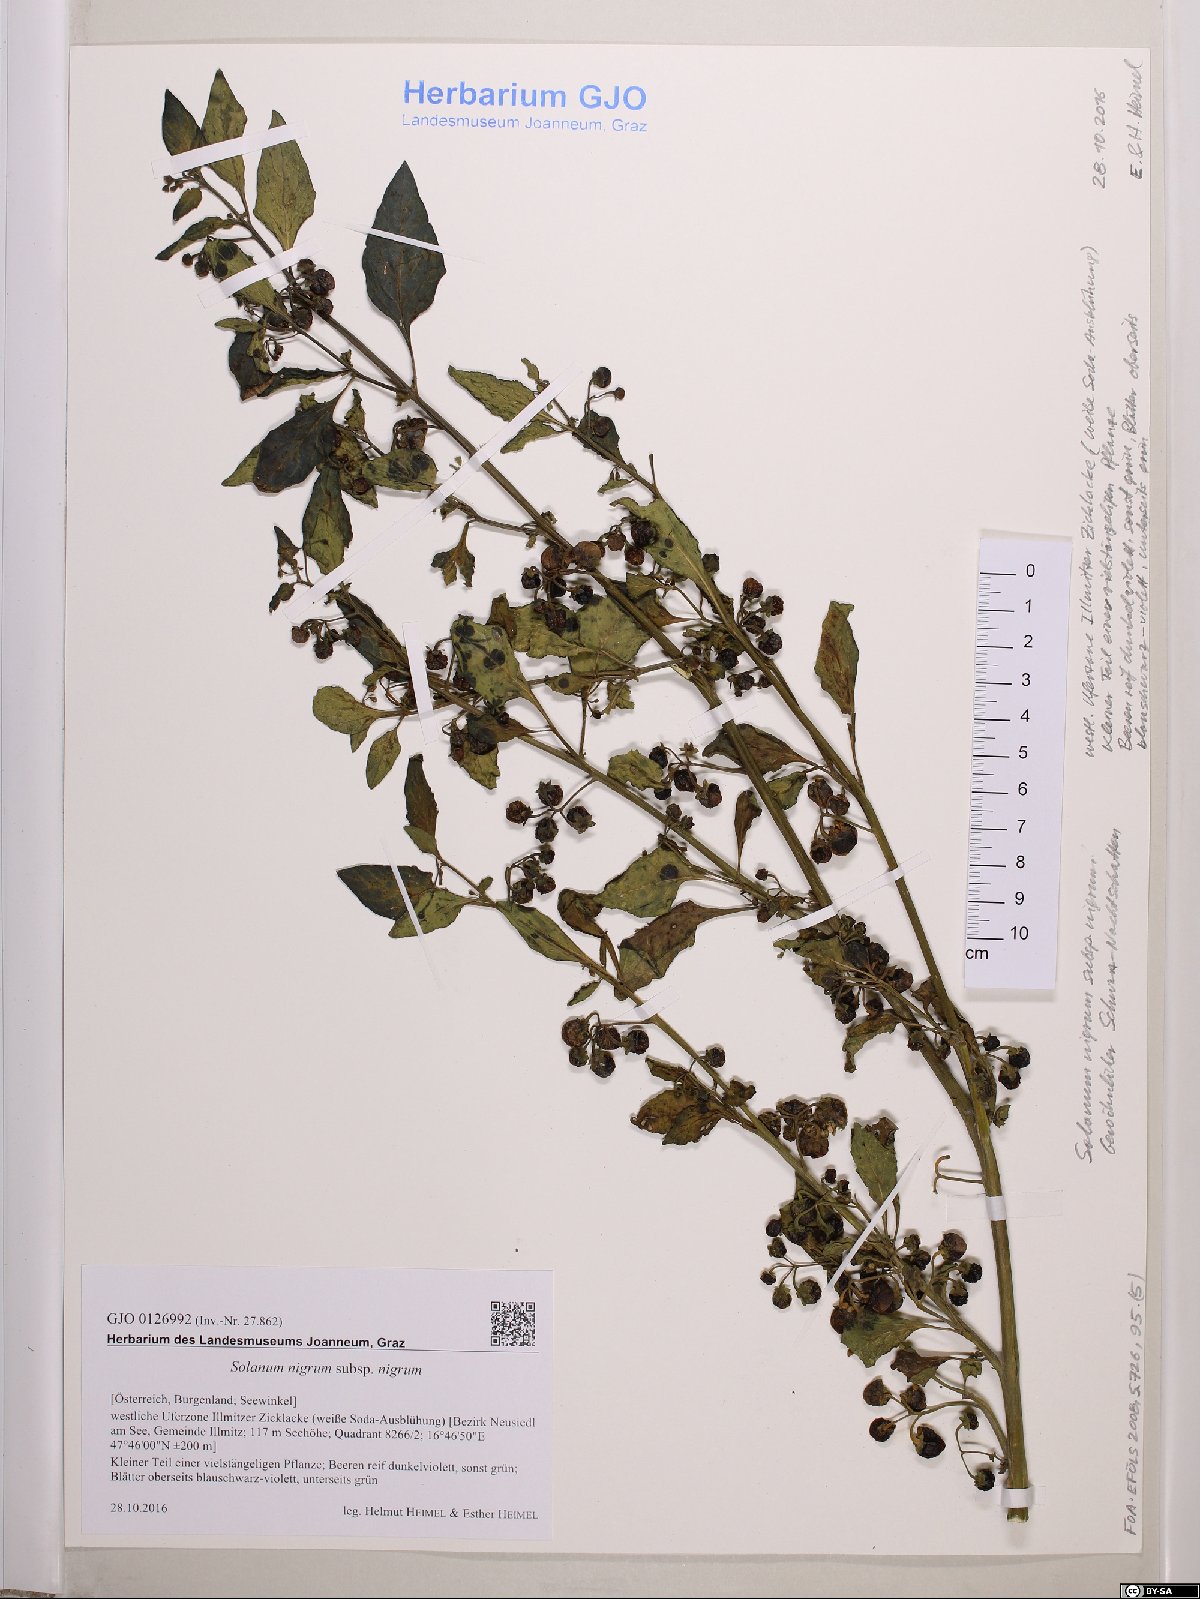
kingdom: Plantae
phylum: Tracheophyta
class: Magnoliopsida
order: Solanales
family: Solanaceae
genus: Solanum
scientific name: Solanum nigrum
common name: Black nightshade
